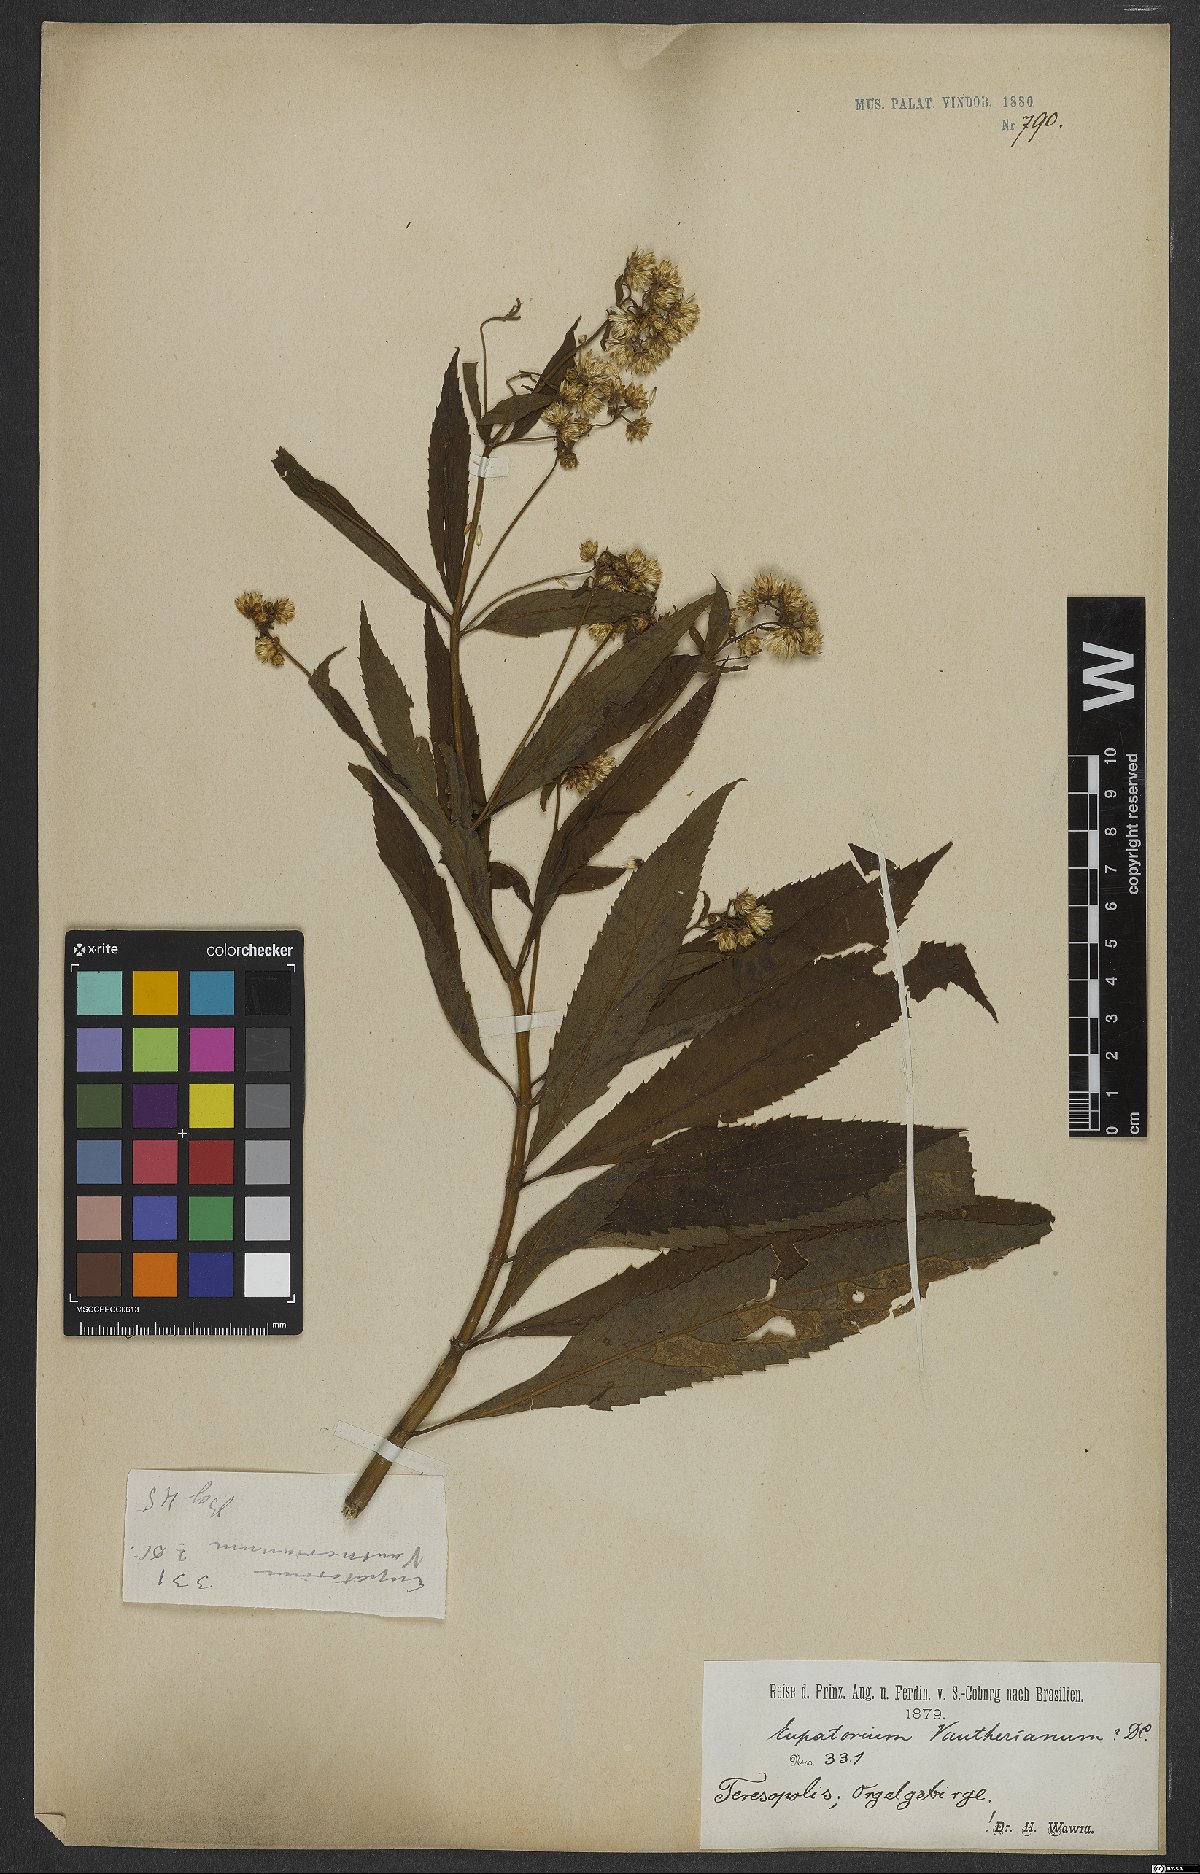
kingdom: Plantae
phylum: Tracheophyta
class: Magnoliopsida
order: Asterales
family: Asteraceae
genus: Heterocondylus
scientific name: Heterocondylus alatus
